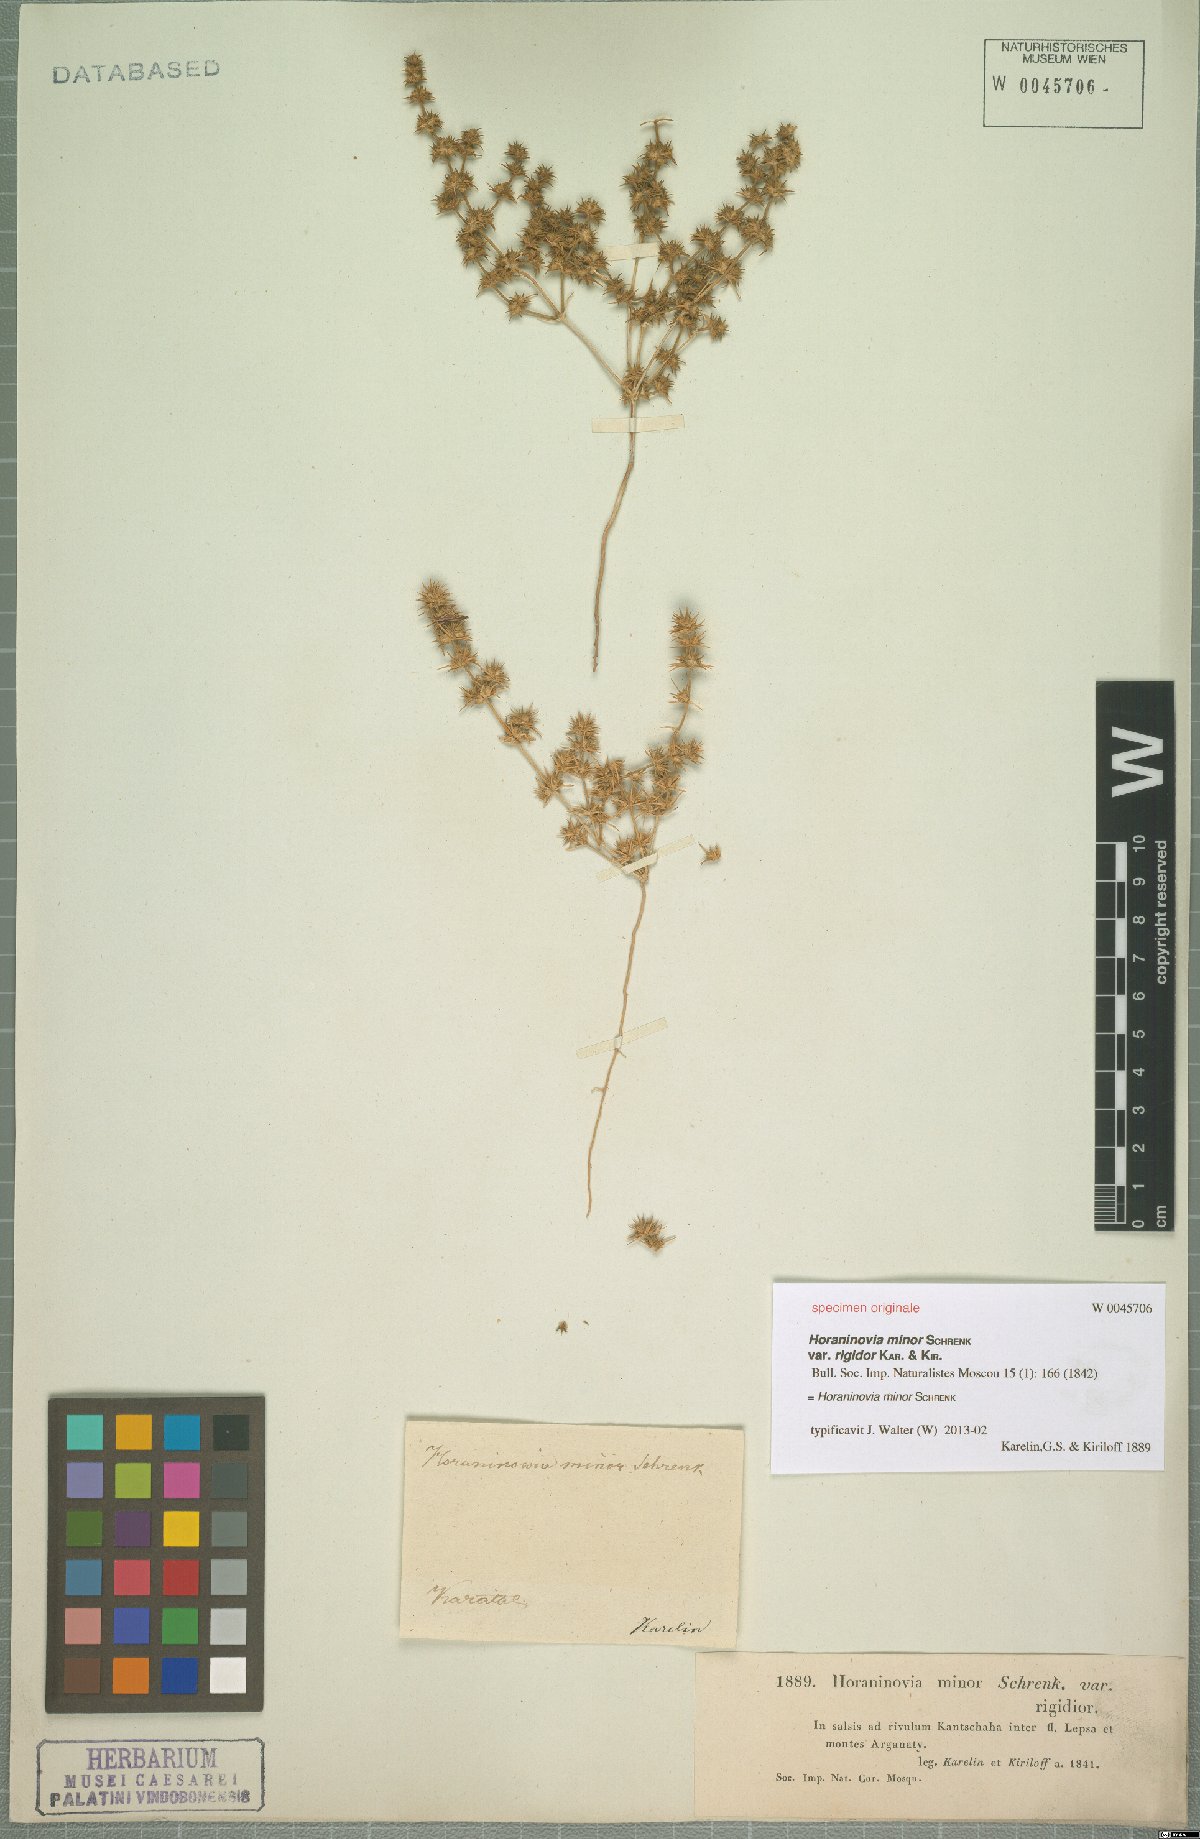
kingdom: Plantae
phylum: Tracheophyta
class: Magnoliopsida
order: Caryophyllales
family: Amaranthaceae
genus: Horaninovia
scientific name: Horaninovia minor
